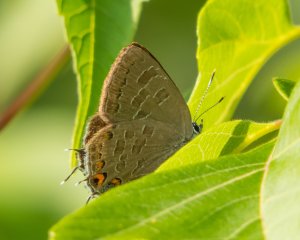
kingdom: Animalia
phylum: Arthropoda
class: Insecta
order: Lepidoptera
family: Lycaenidae
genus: Satyrium
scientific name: Satyrium liparops
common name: Striped Hairstreak
